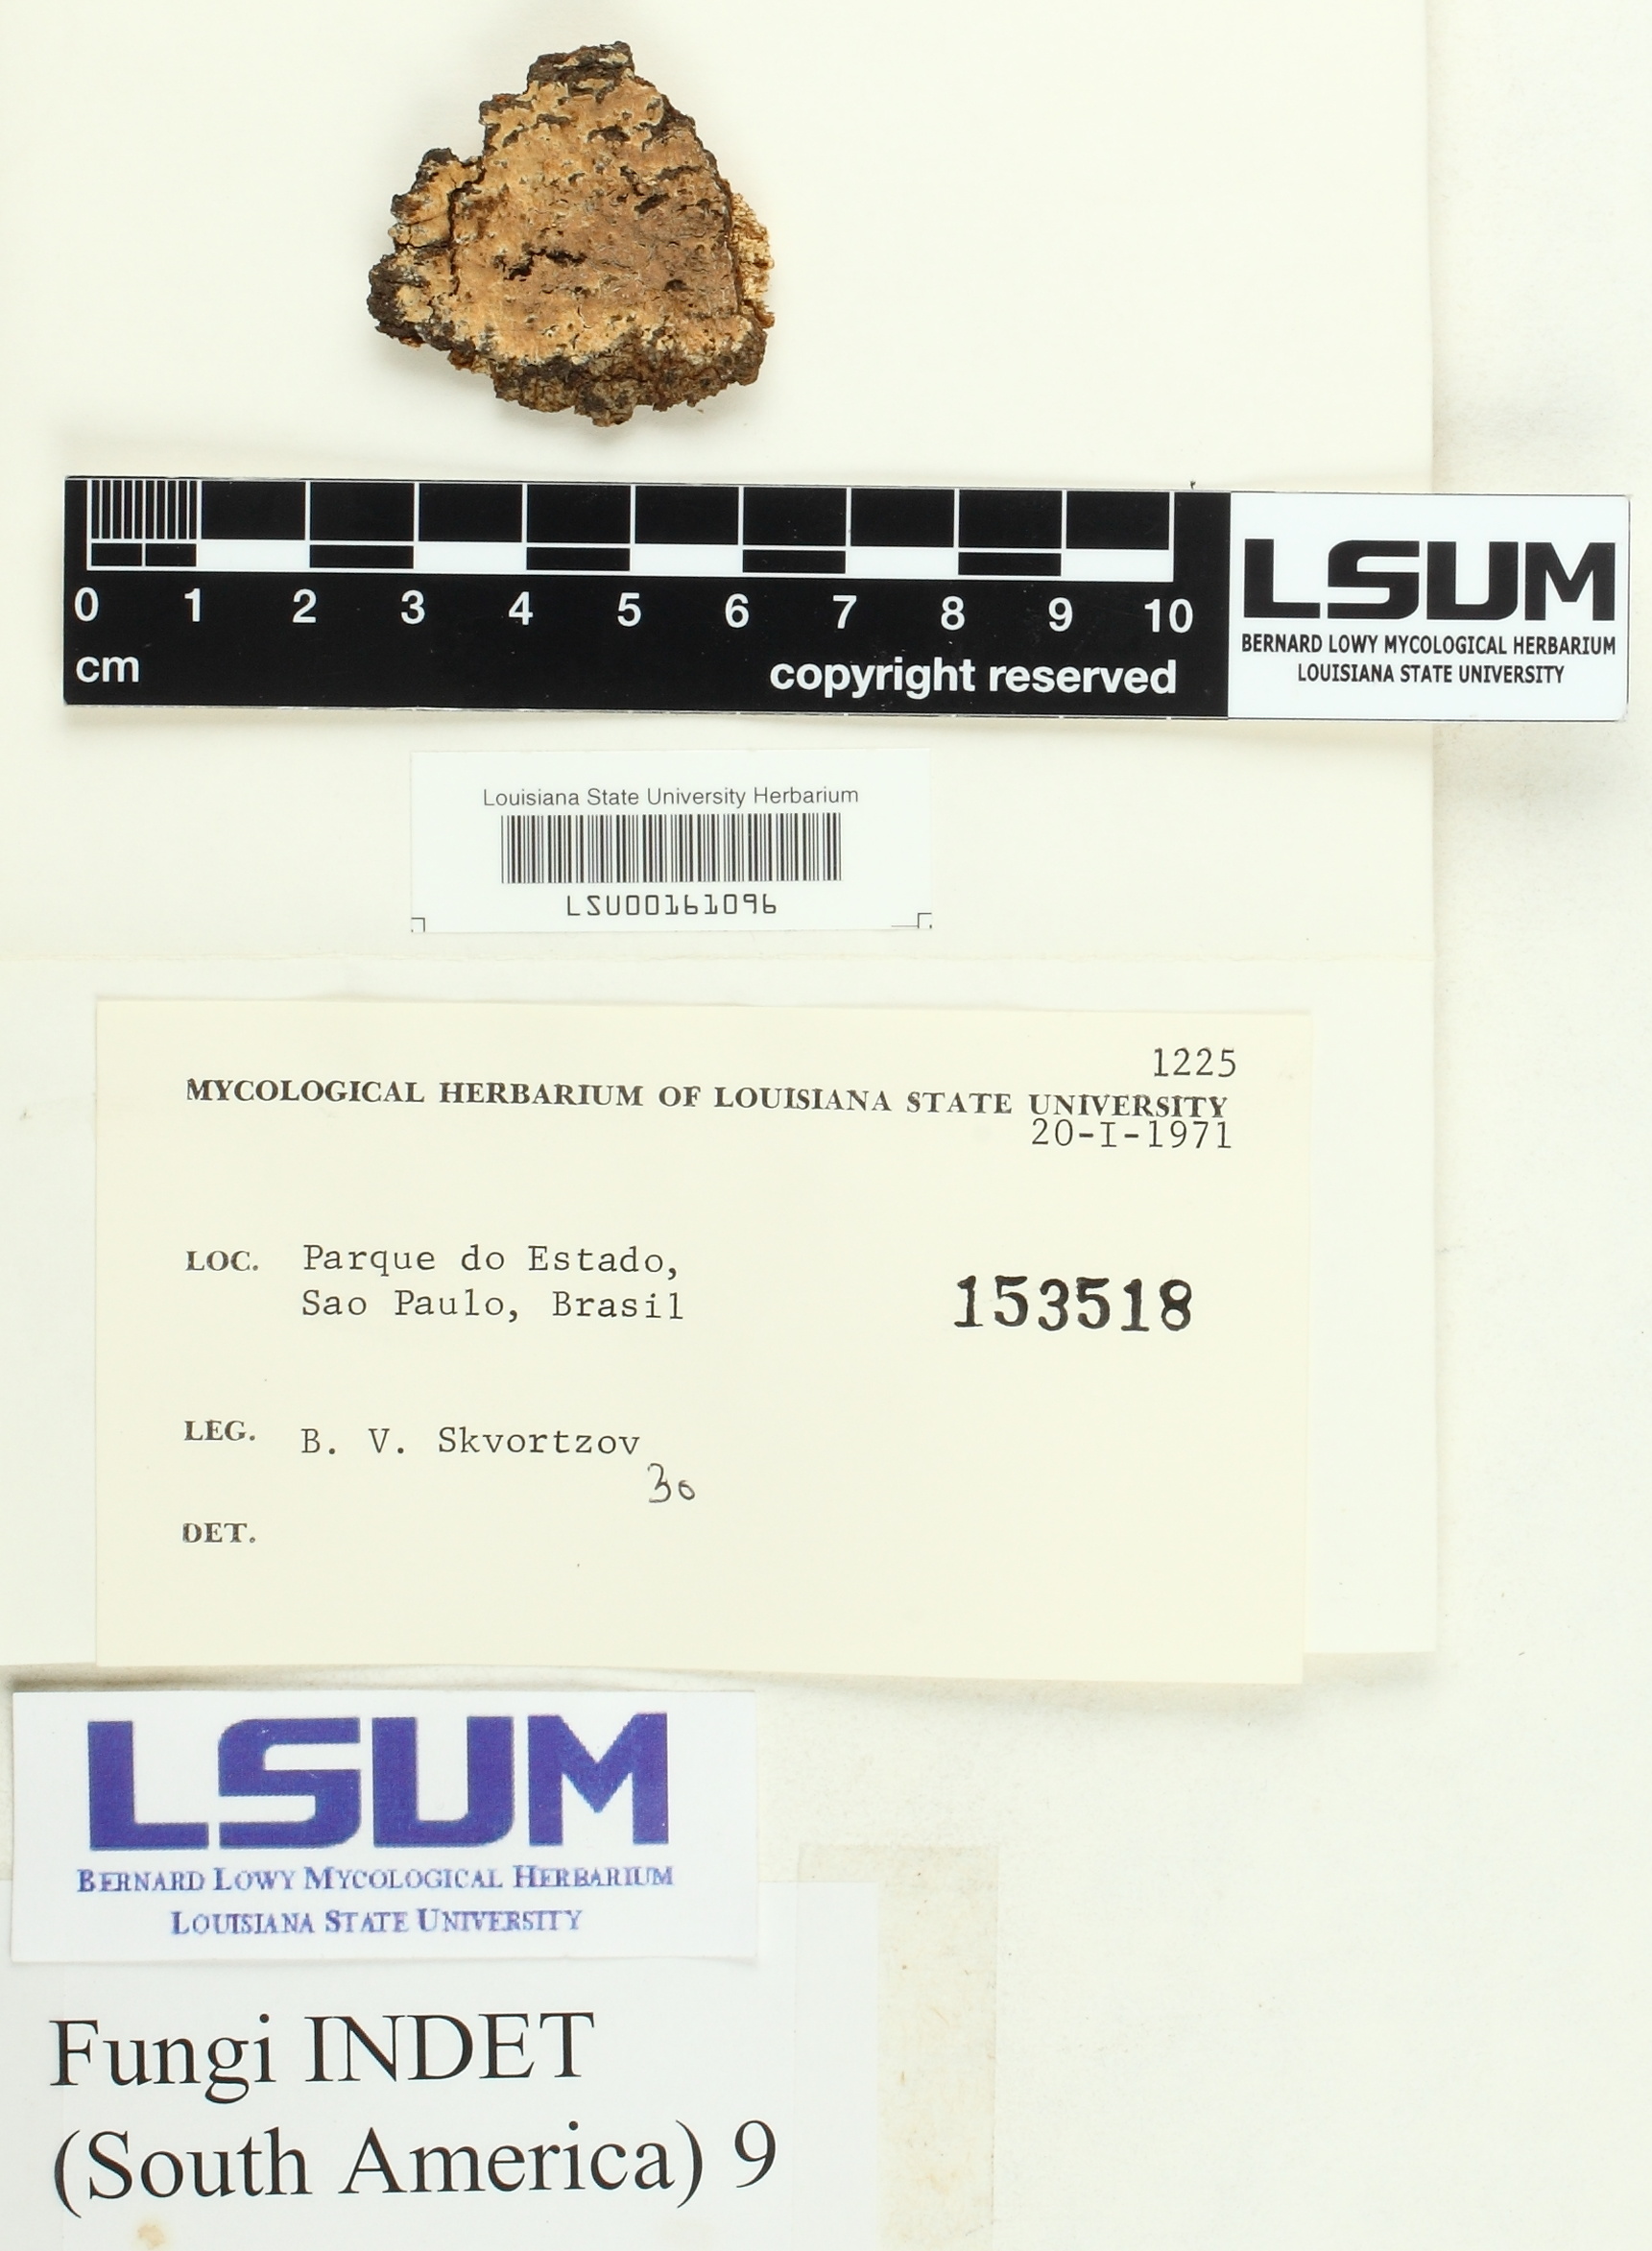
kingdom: Fungi
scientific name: Fungi
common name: Fungi
